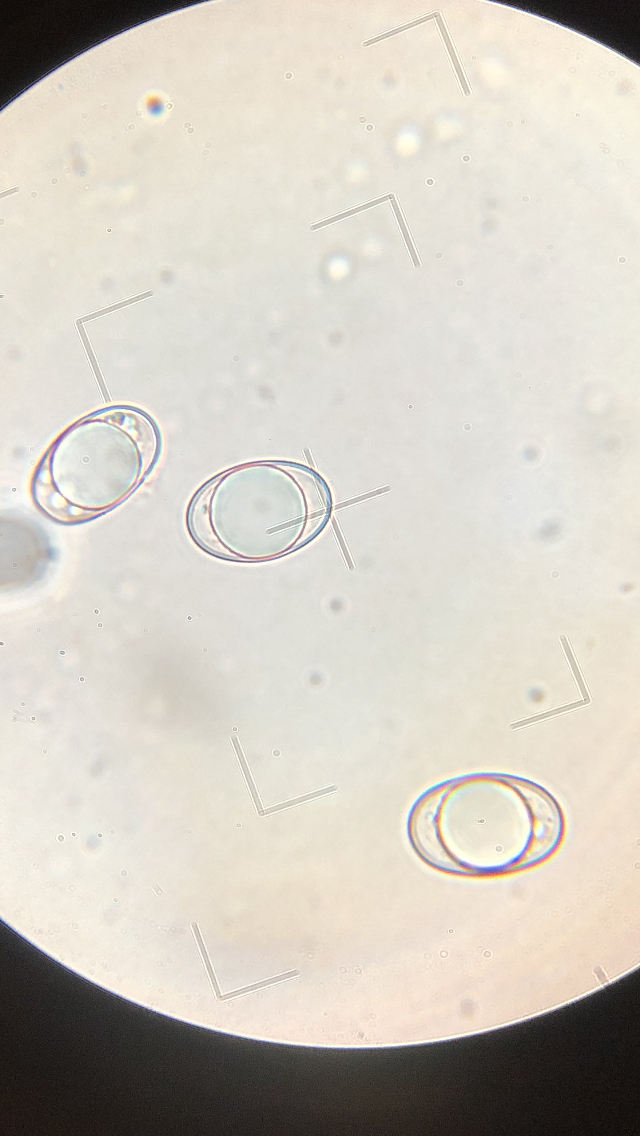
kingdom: Fungi
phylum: Ascomycota
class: Pezizomycetes
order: Pezizales
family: Helvellaceae
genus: Helvella
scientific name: Helvella elastica
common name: elastik-foldhat
